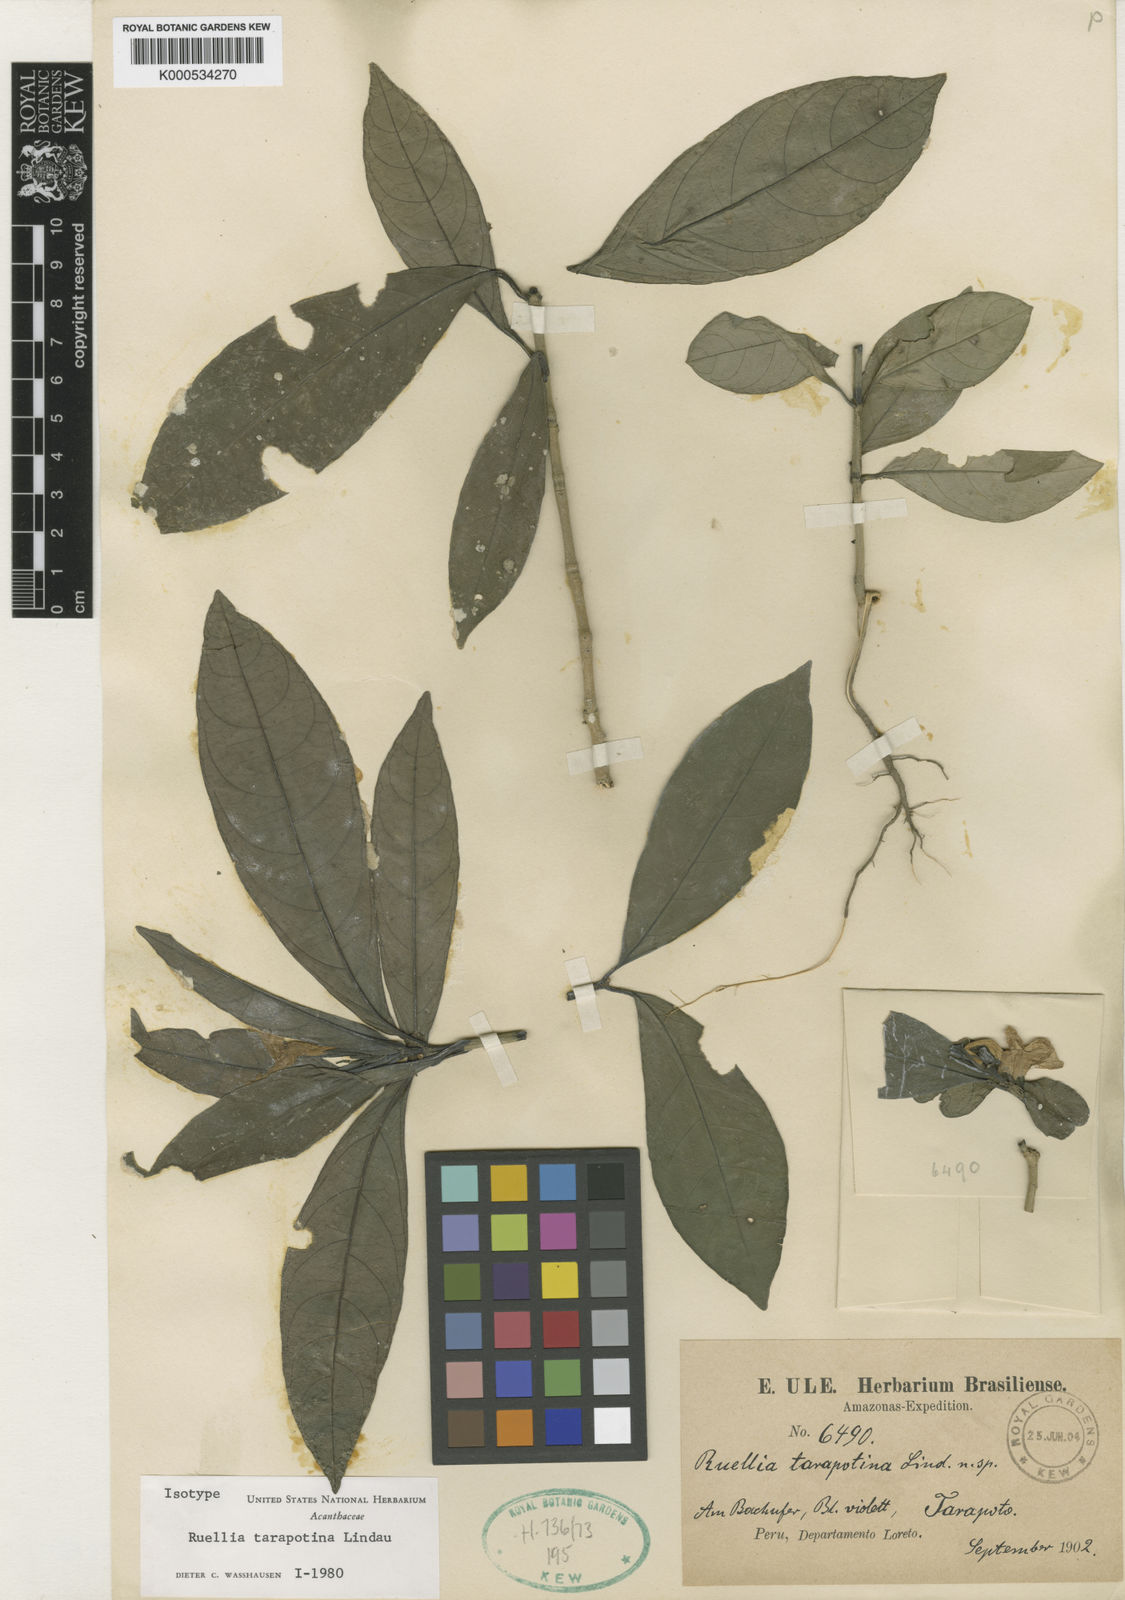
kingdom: Plantae
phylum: Tracheophyta
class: Magnoliopsida
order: Lamiales
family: Acanthaceae
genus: Ruellia
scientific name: Ruellia tarapotana
